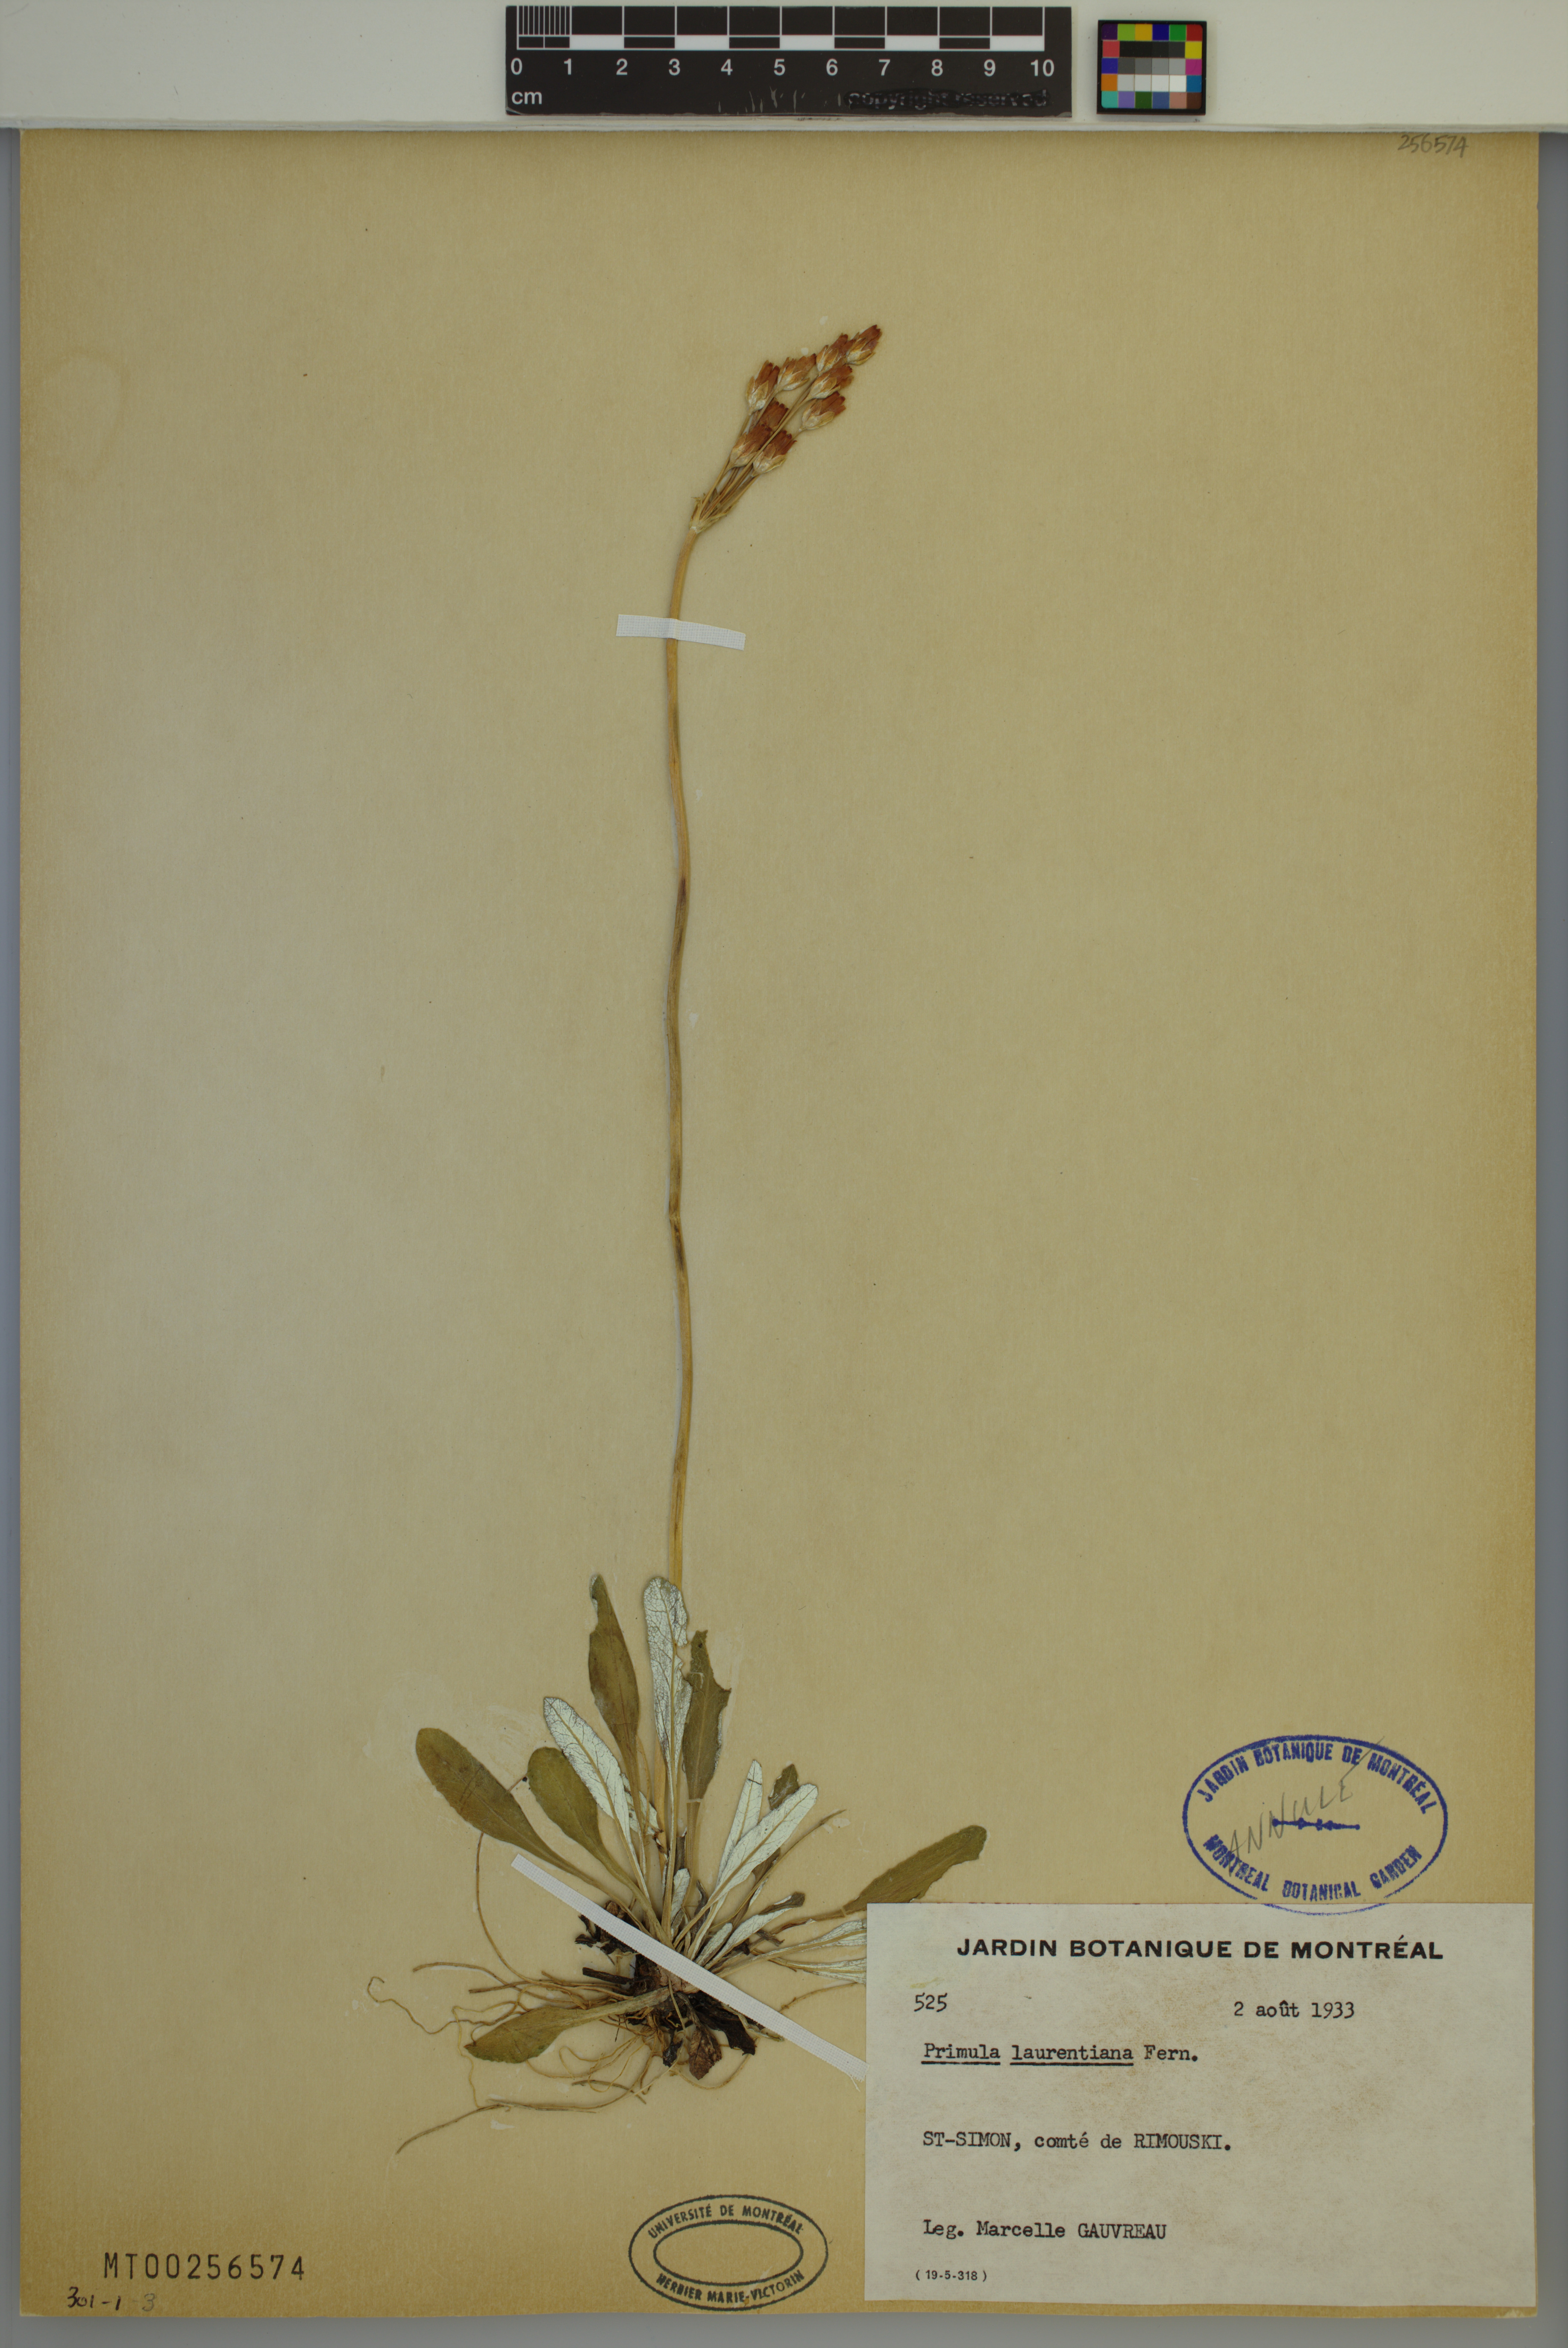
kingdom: Plantae
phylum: Tracheophyta
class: Magnoliopsida
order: Ericales
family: Primulaceae
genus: Primula
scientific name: Primula laurentiana
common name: Bird-eye primrose
